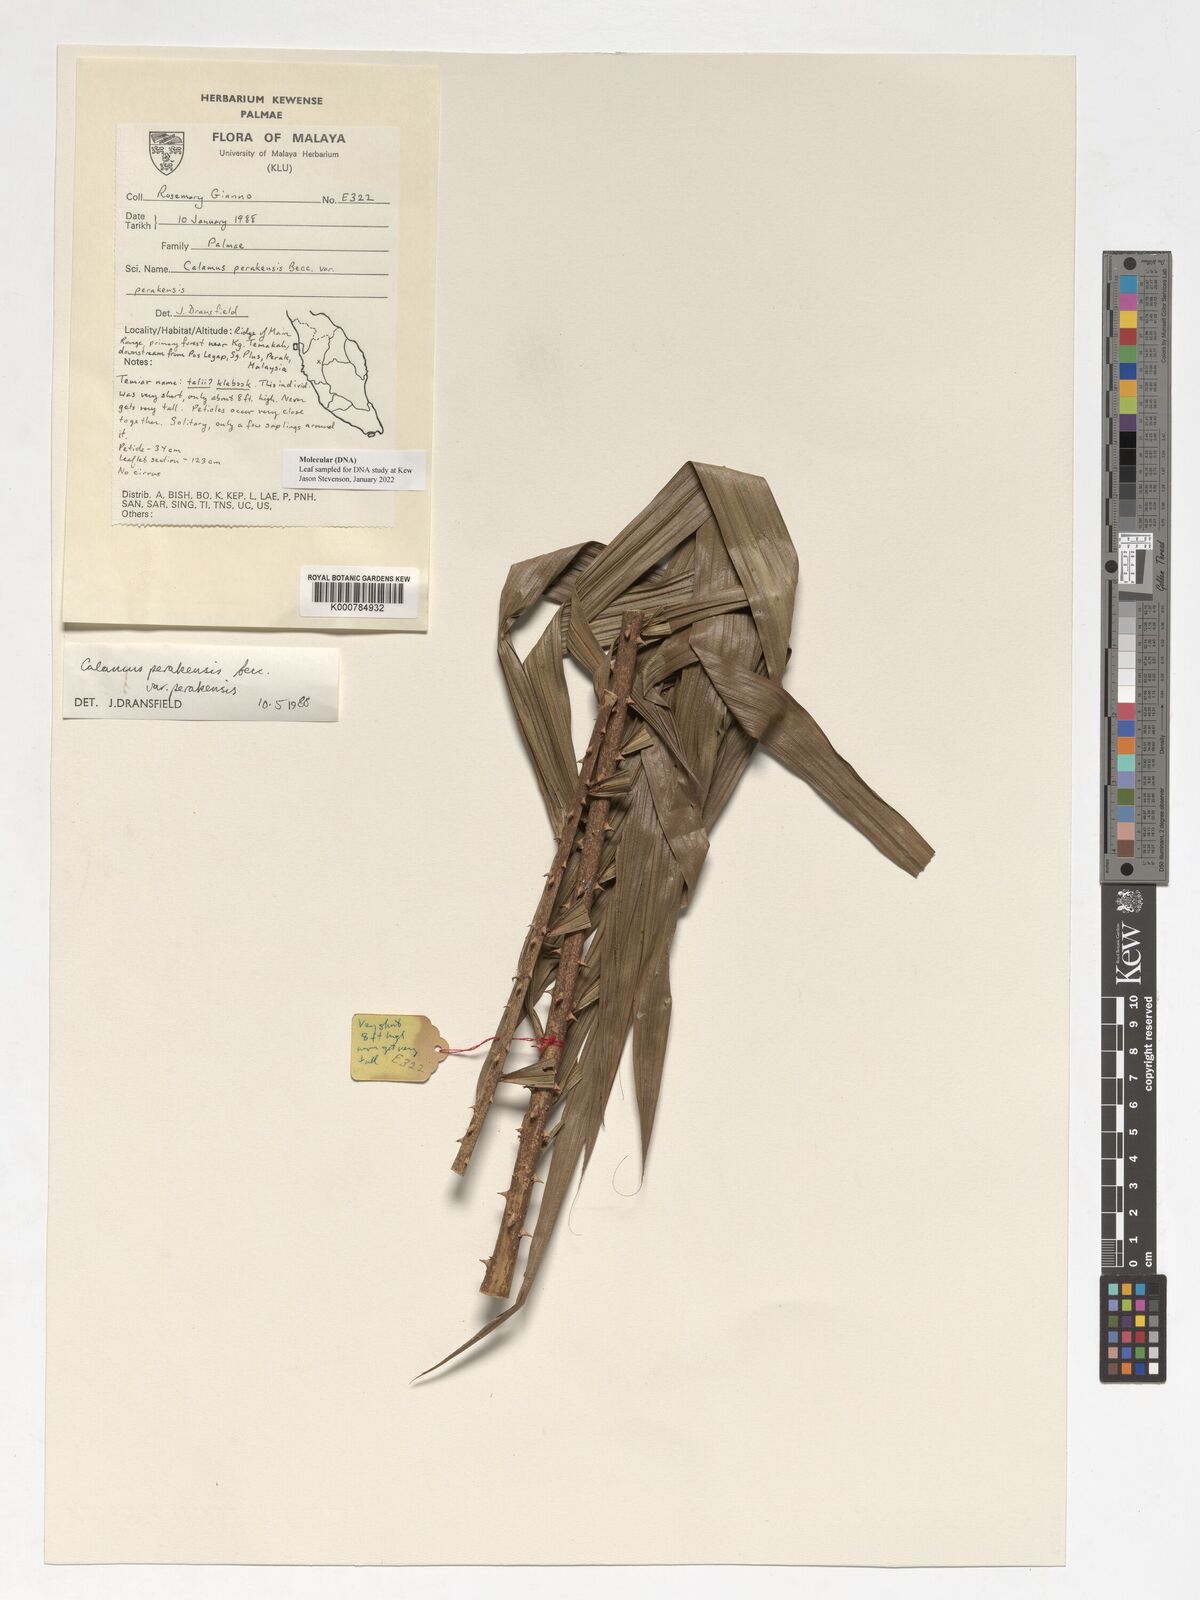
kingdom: Plantae
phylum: Tracheophyta
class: Liliopsida
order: Arecales
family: Arecaceae
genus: Calamus
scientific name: Calamus perakensis
